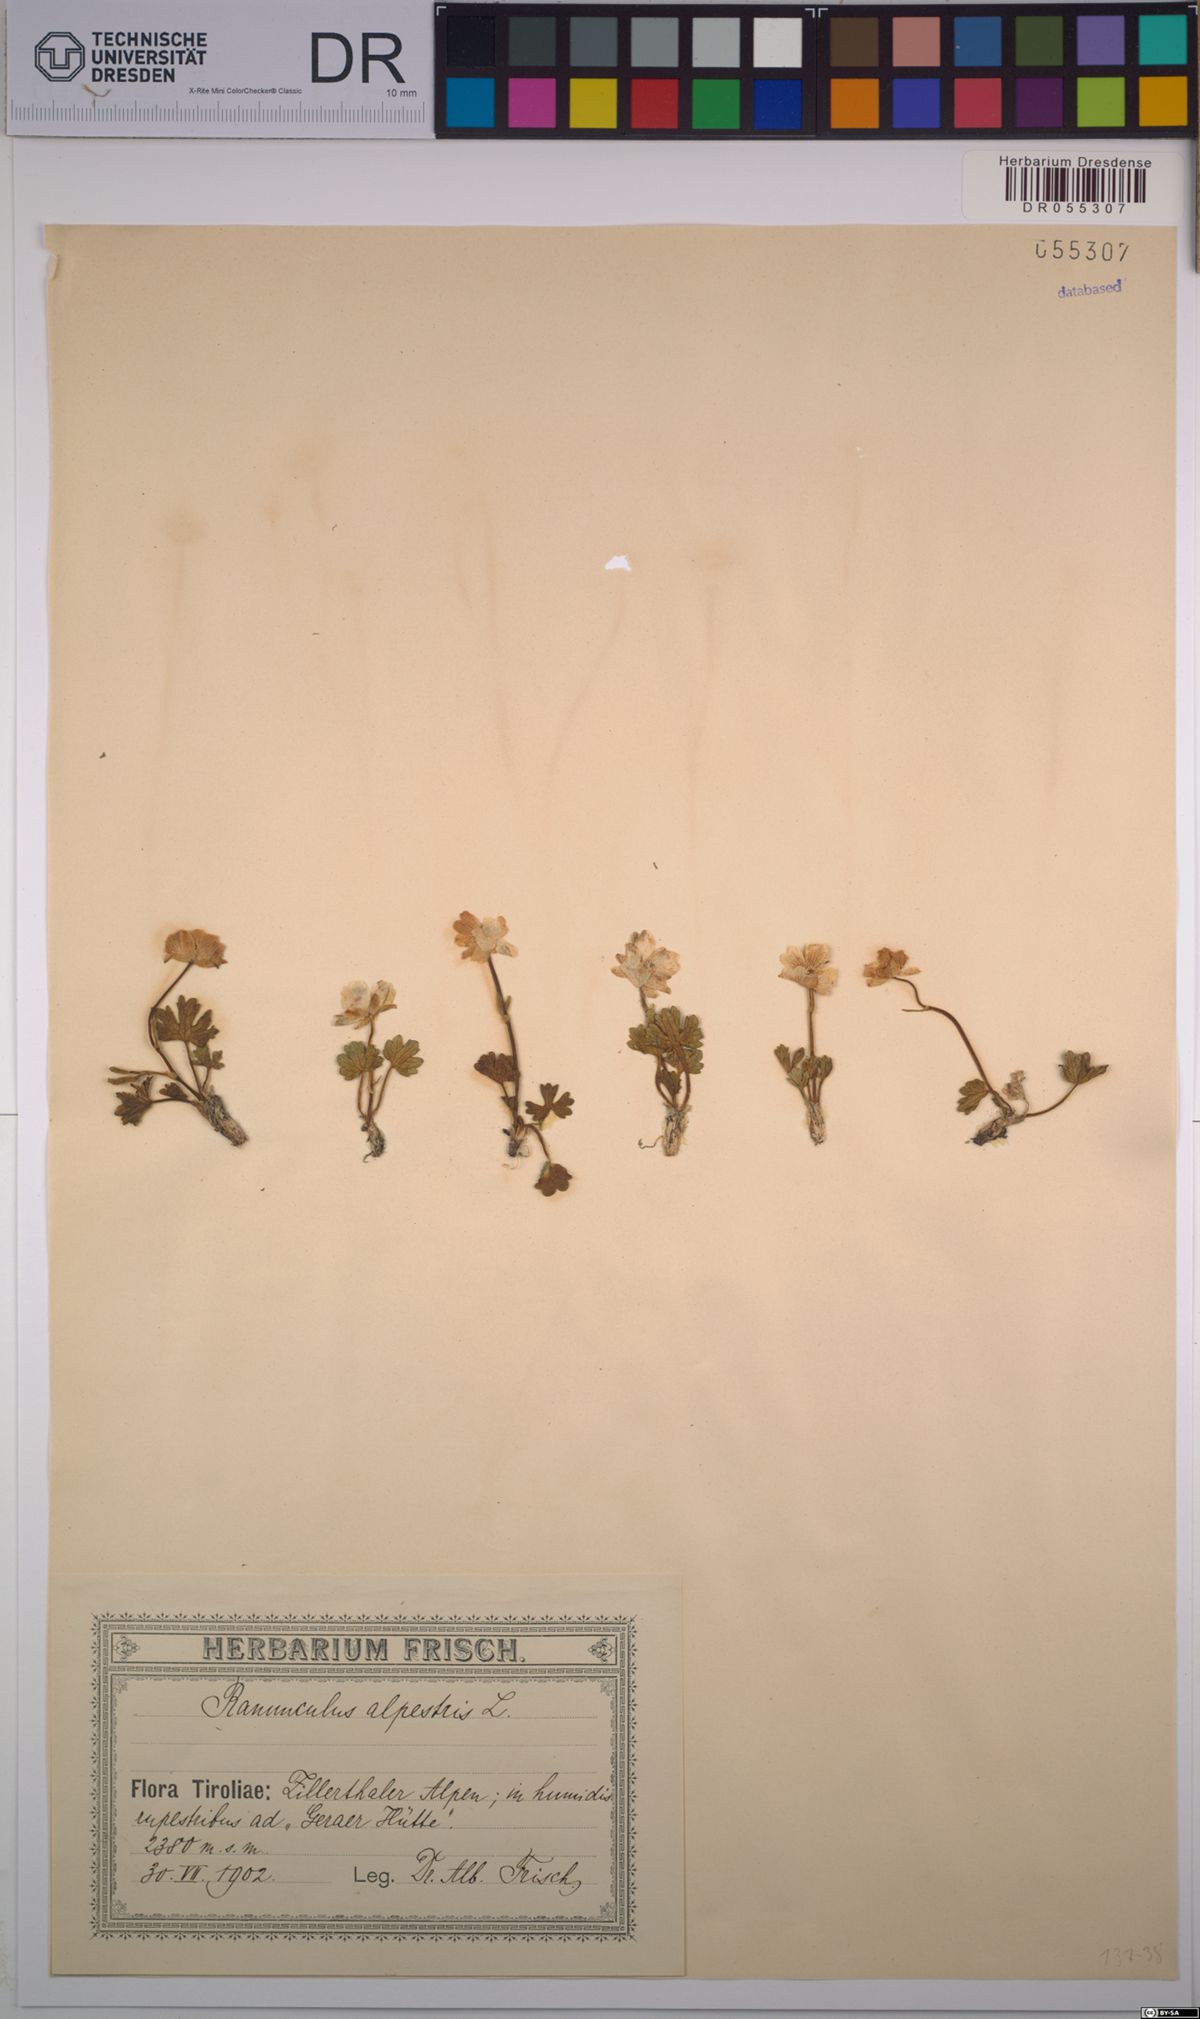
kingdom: Plantae
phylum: Tracheophyta
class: Magnoliopsida
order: Ranunculales
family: Ranunculaceae
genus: Ranunculus
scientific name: Ranunculus alpestris
